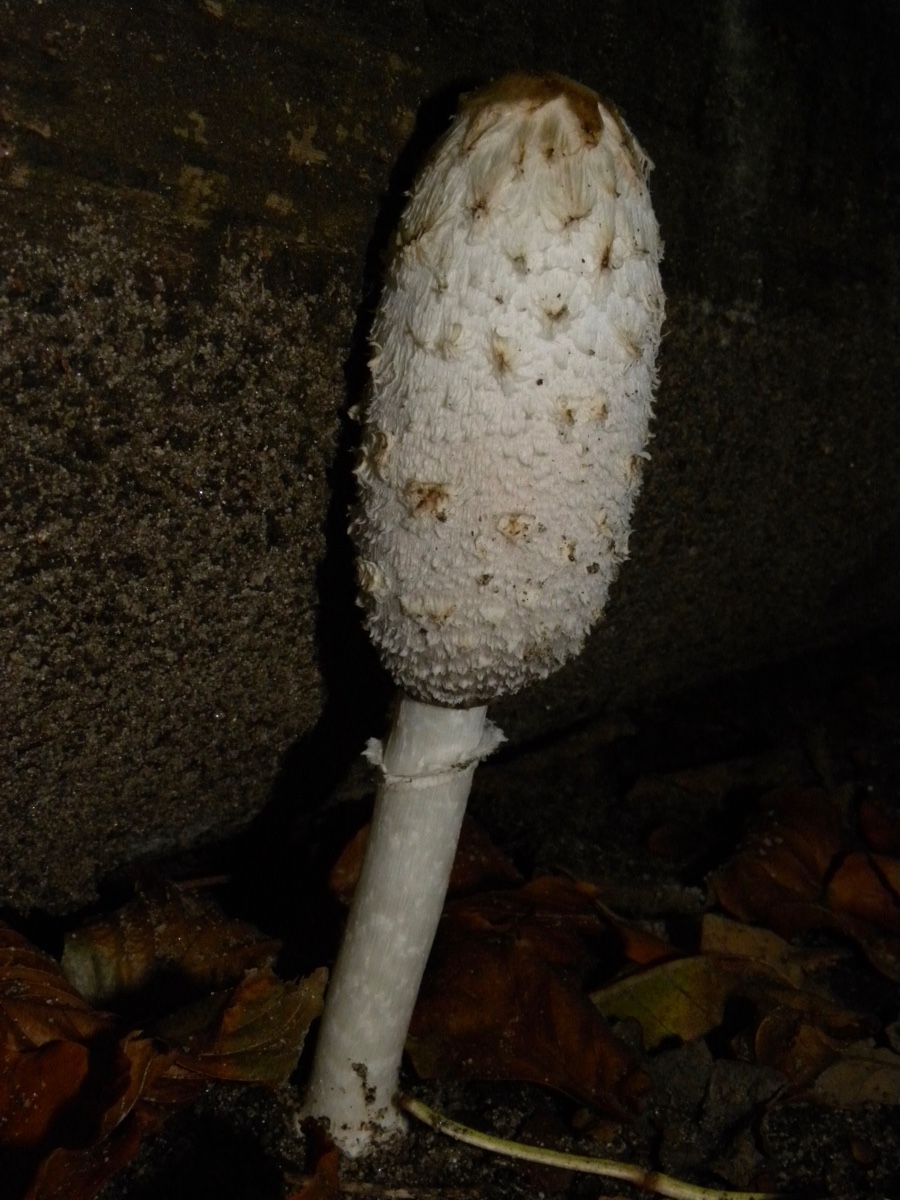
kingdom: Fungi
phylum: Basidiomycota
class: Agaricomycetes
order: Agaricales
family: Agaricaceae
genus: Coprinus
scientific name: Coprinus comatus
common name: stor parykhat
